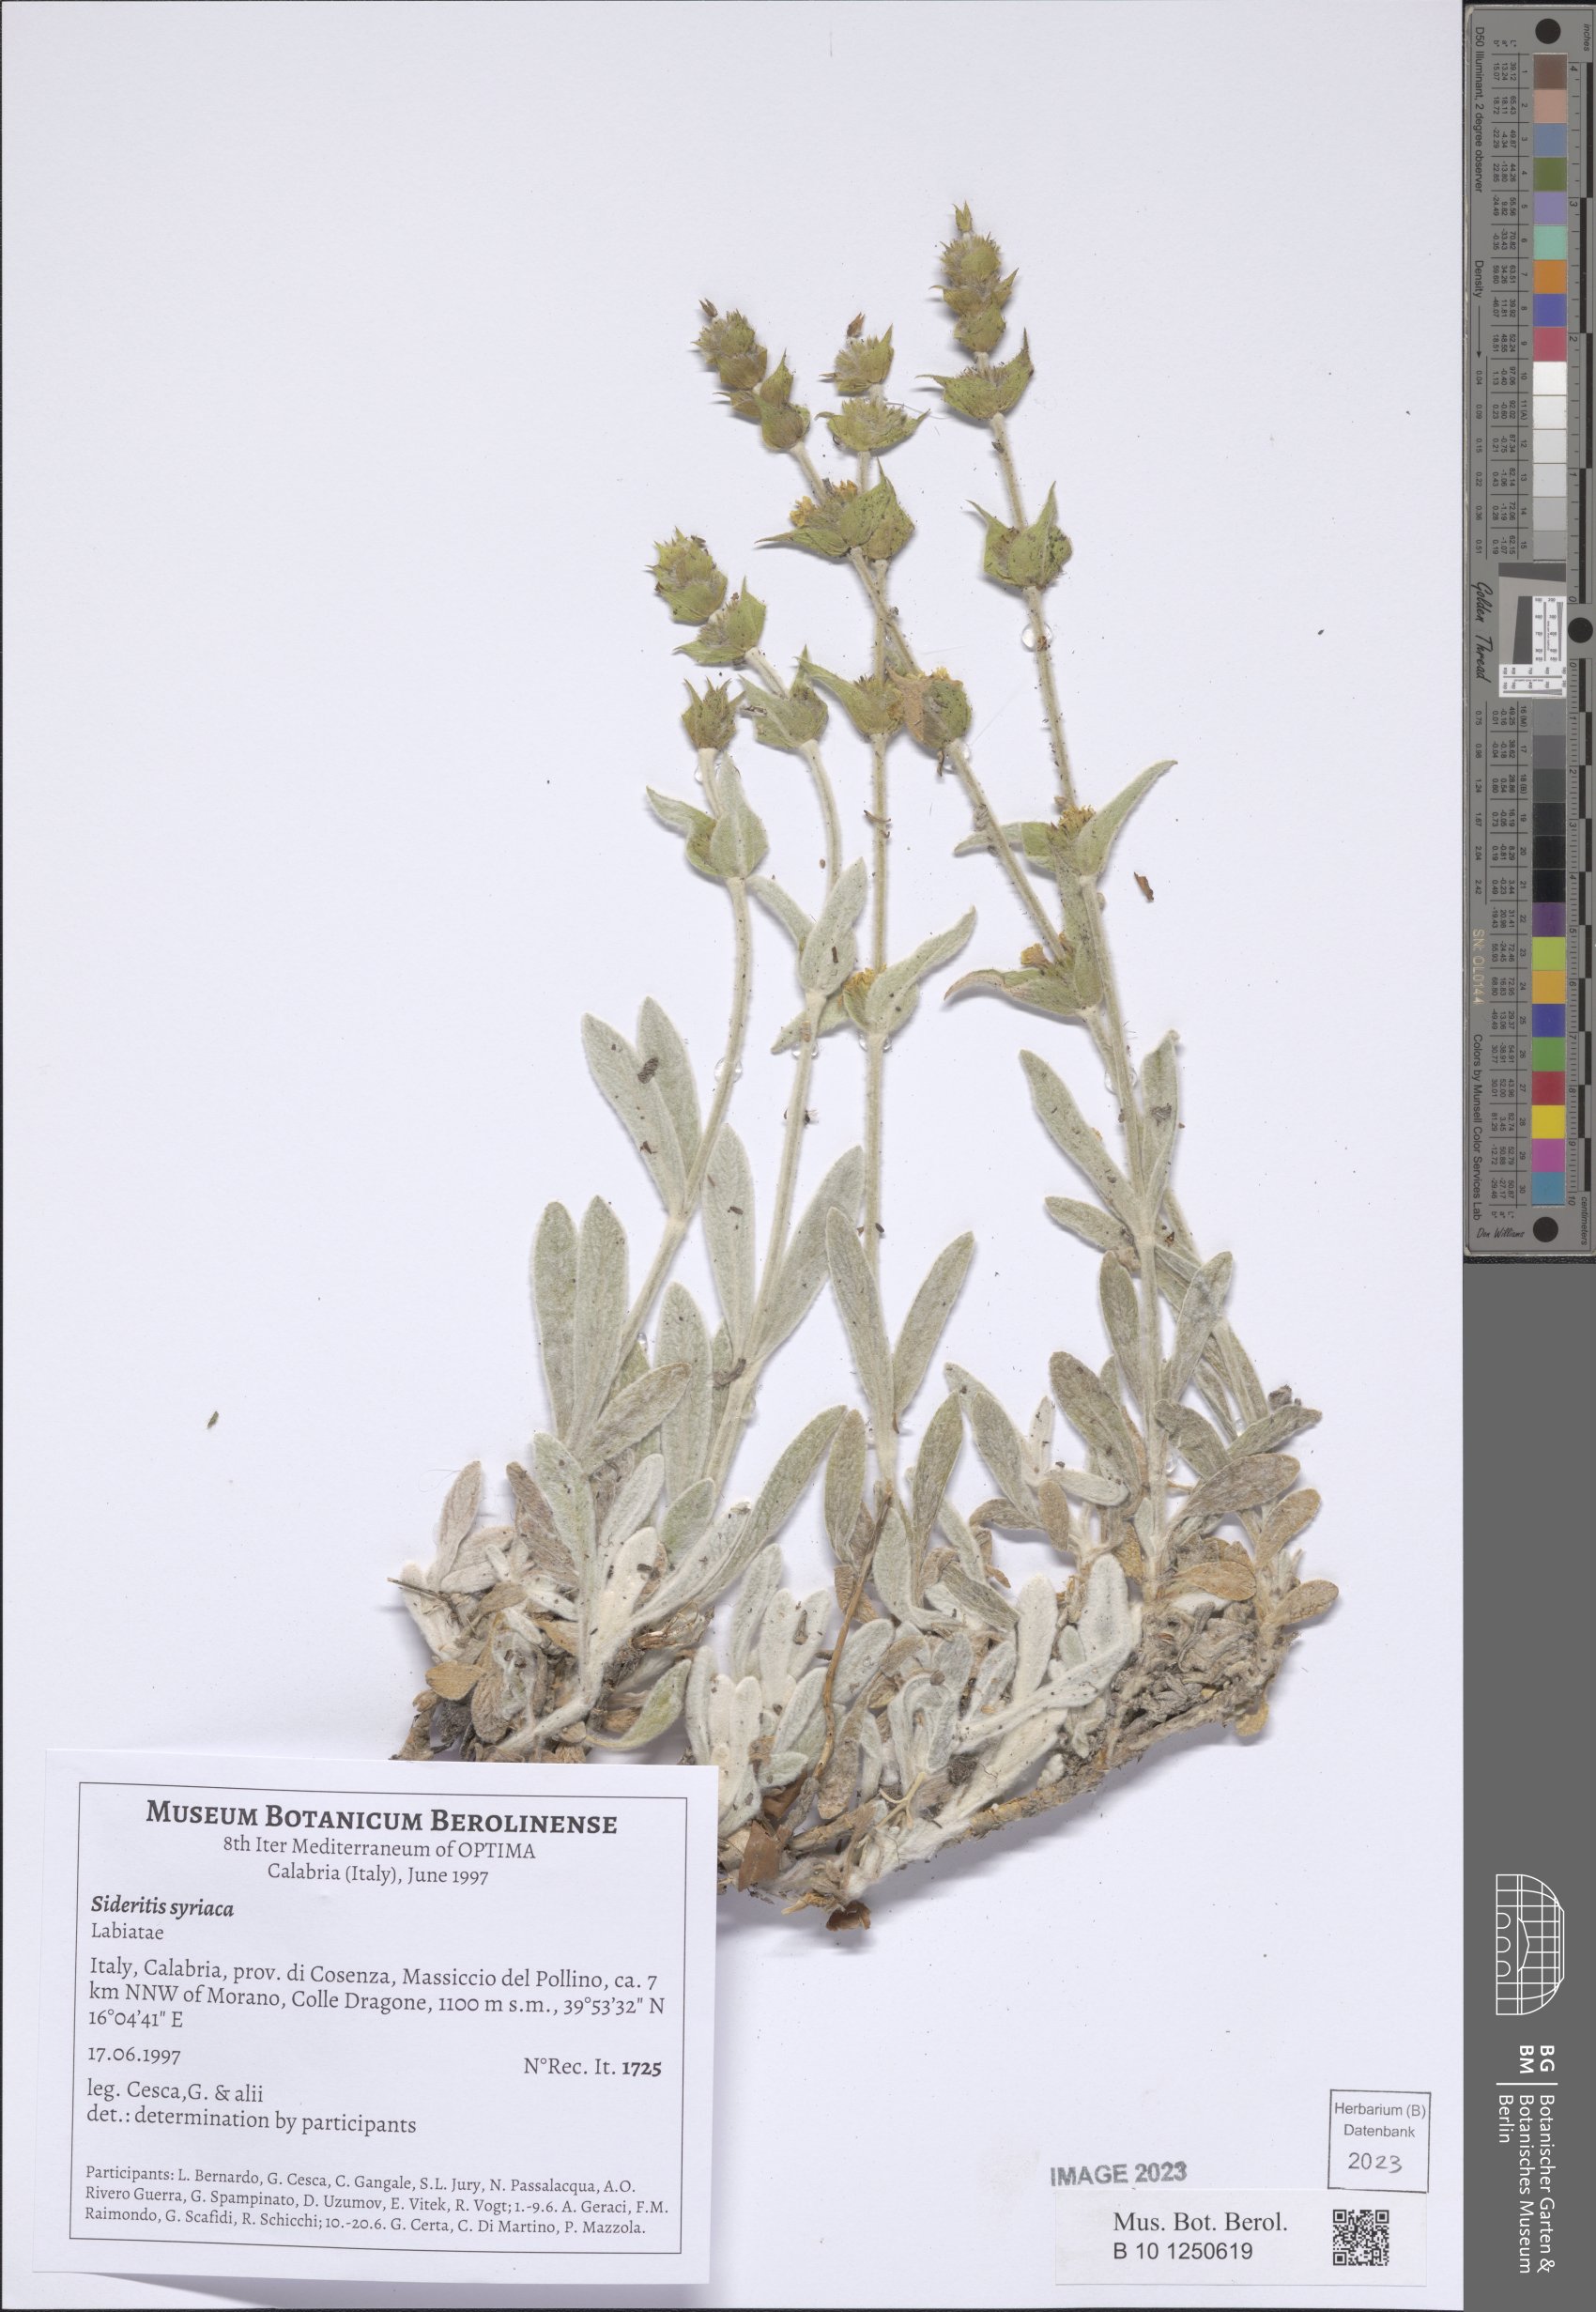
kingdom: Plantae
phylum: Tracheophyta
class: Magnoliopsida
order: Lamiales
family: Lamiaceae
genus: Sideritis
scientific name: Sideritis syriaca
